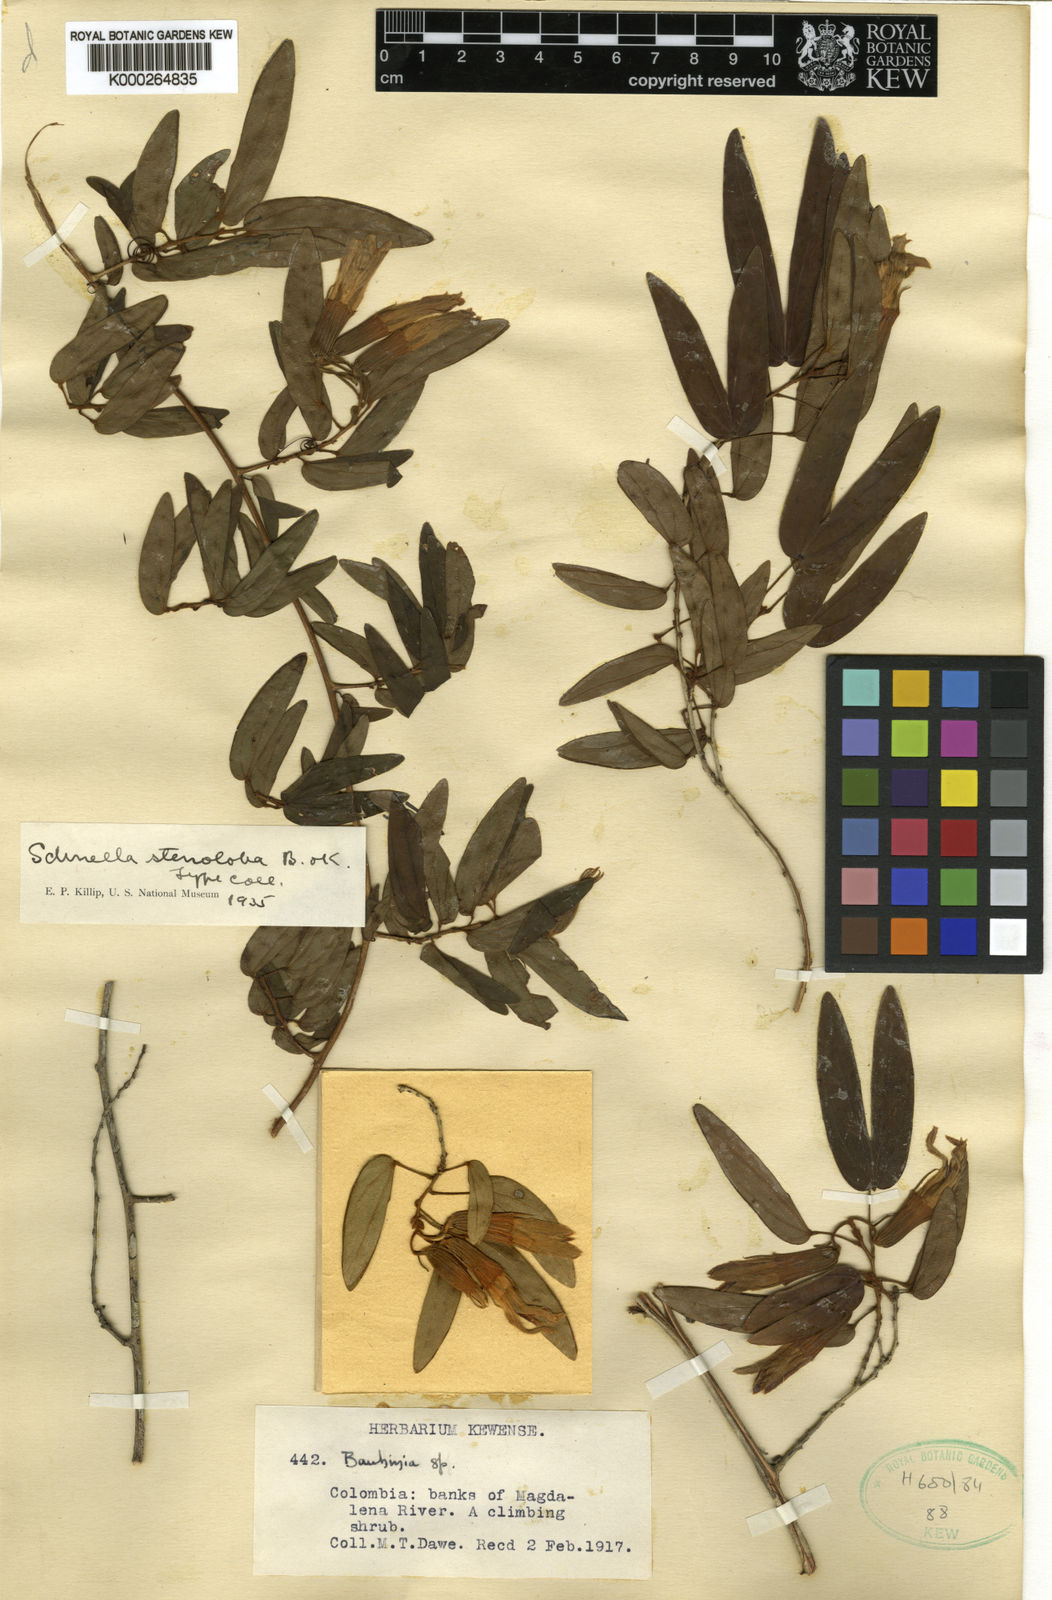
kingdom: Plantae
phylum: Tracheophyta
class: Magnoliopsida
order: Fabales
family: Fabaceae
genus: Schnella
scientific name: Schnella stenoloba
